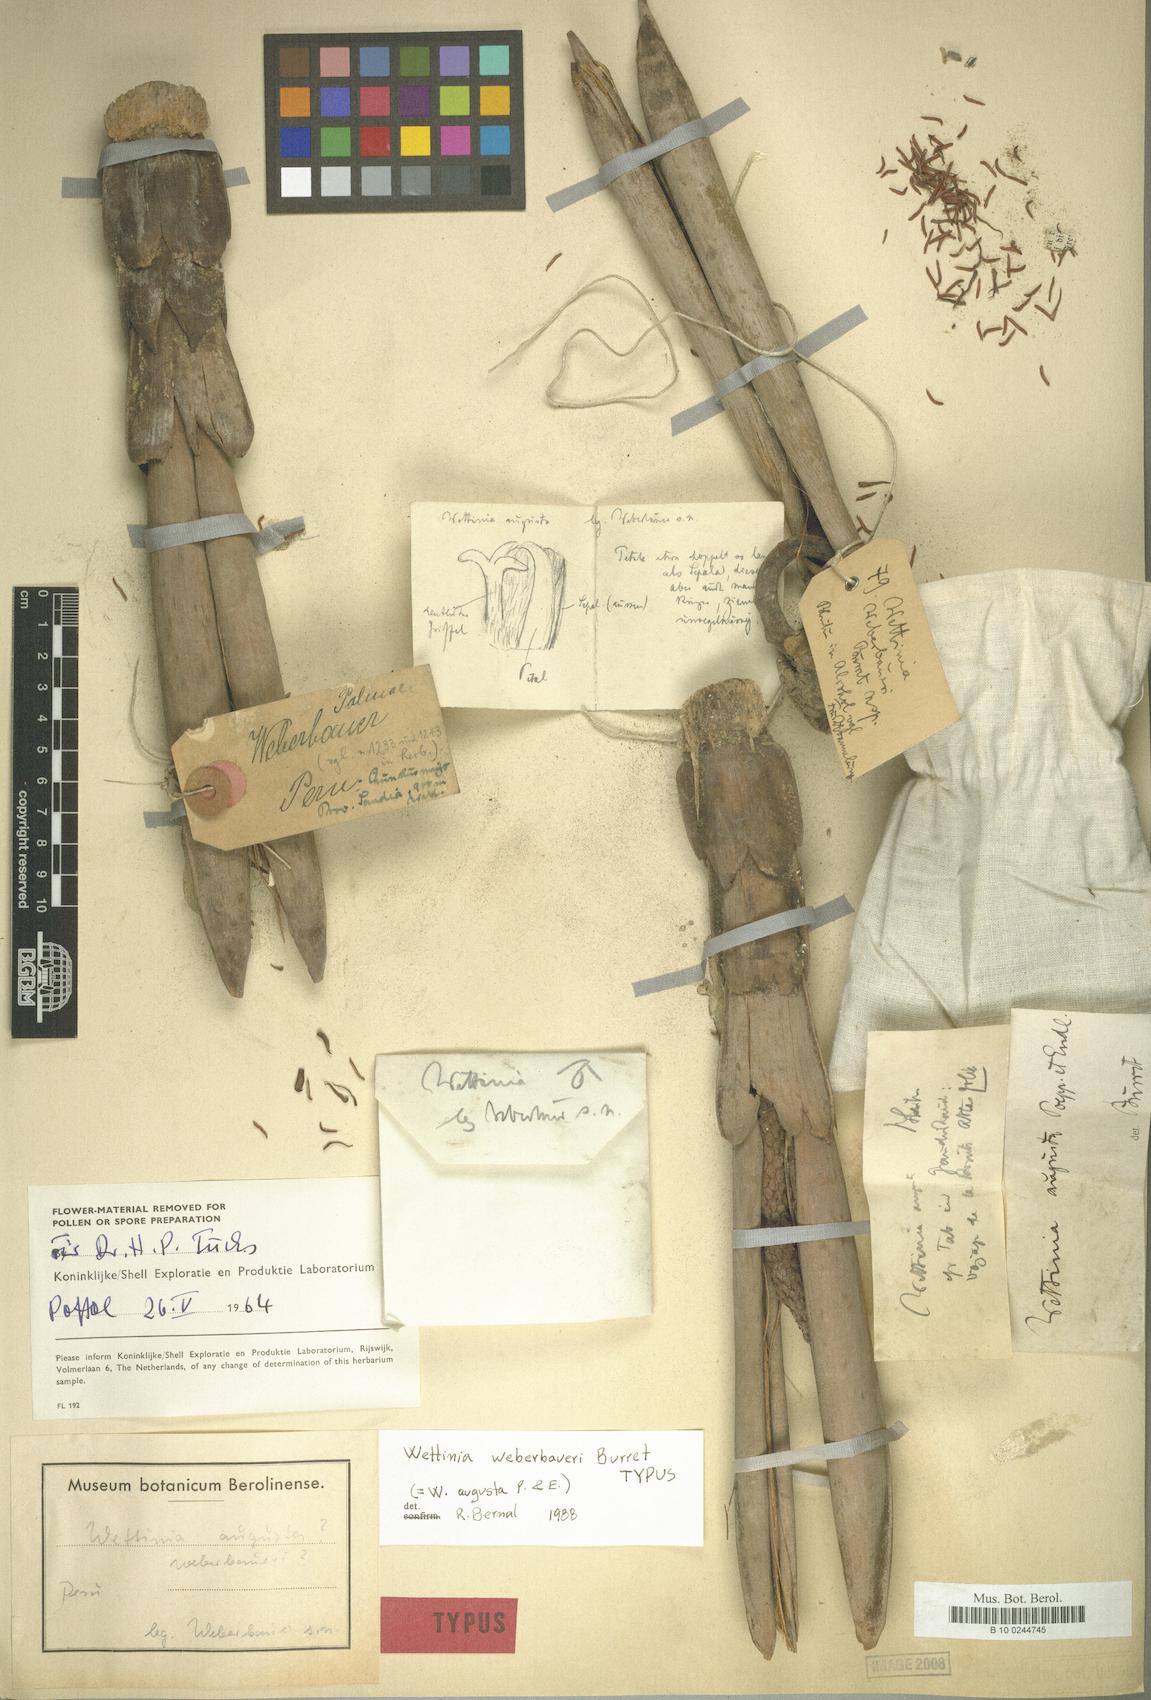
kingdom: Plantae
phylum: Tracheophyta
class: Liliopsida
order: Arecales
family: Arecaceae
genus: Wettinia
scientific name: Wettinia augusta
